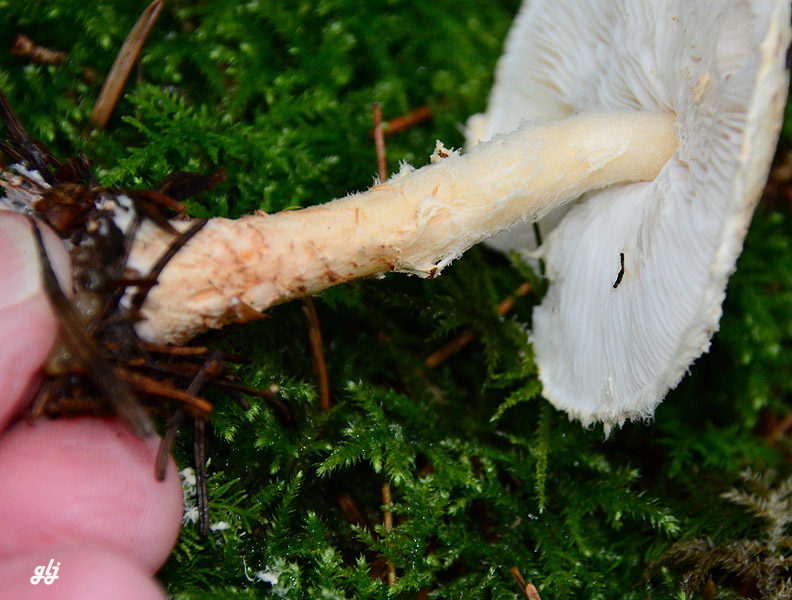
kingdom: Fungi
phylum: Basidiomycota
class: Agaricomycetes
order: Agaricales
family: Agaricaceae
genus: Lepiota
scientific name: Lepiota magnispora
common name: gulfnugget parasolhat
